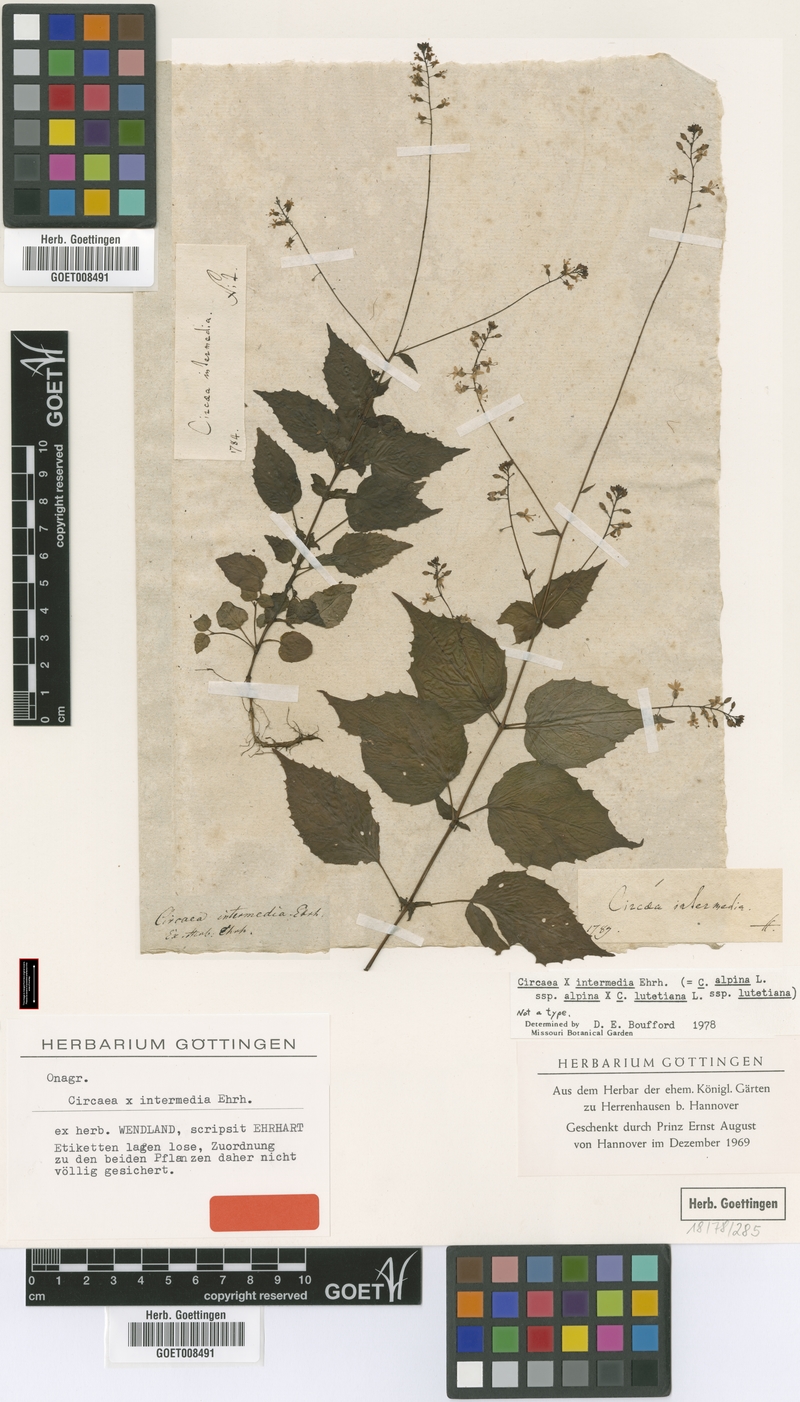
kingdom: Plantae
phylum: Tracheophyta
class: Magnoliopsida
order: Myrtales
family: Onagraceae
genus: Circaea
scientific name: Circaea intermedia
